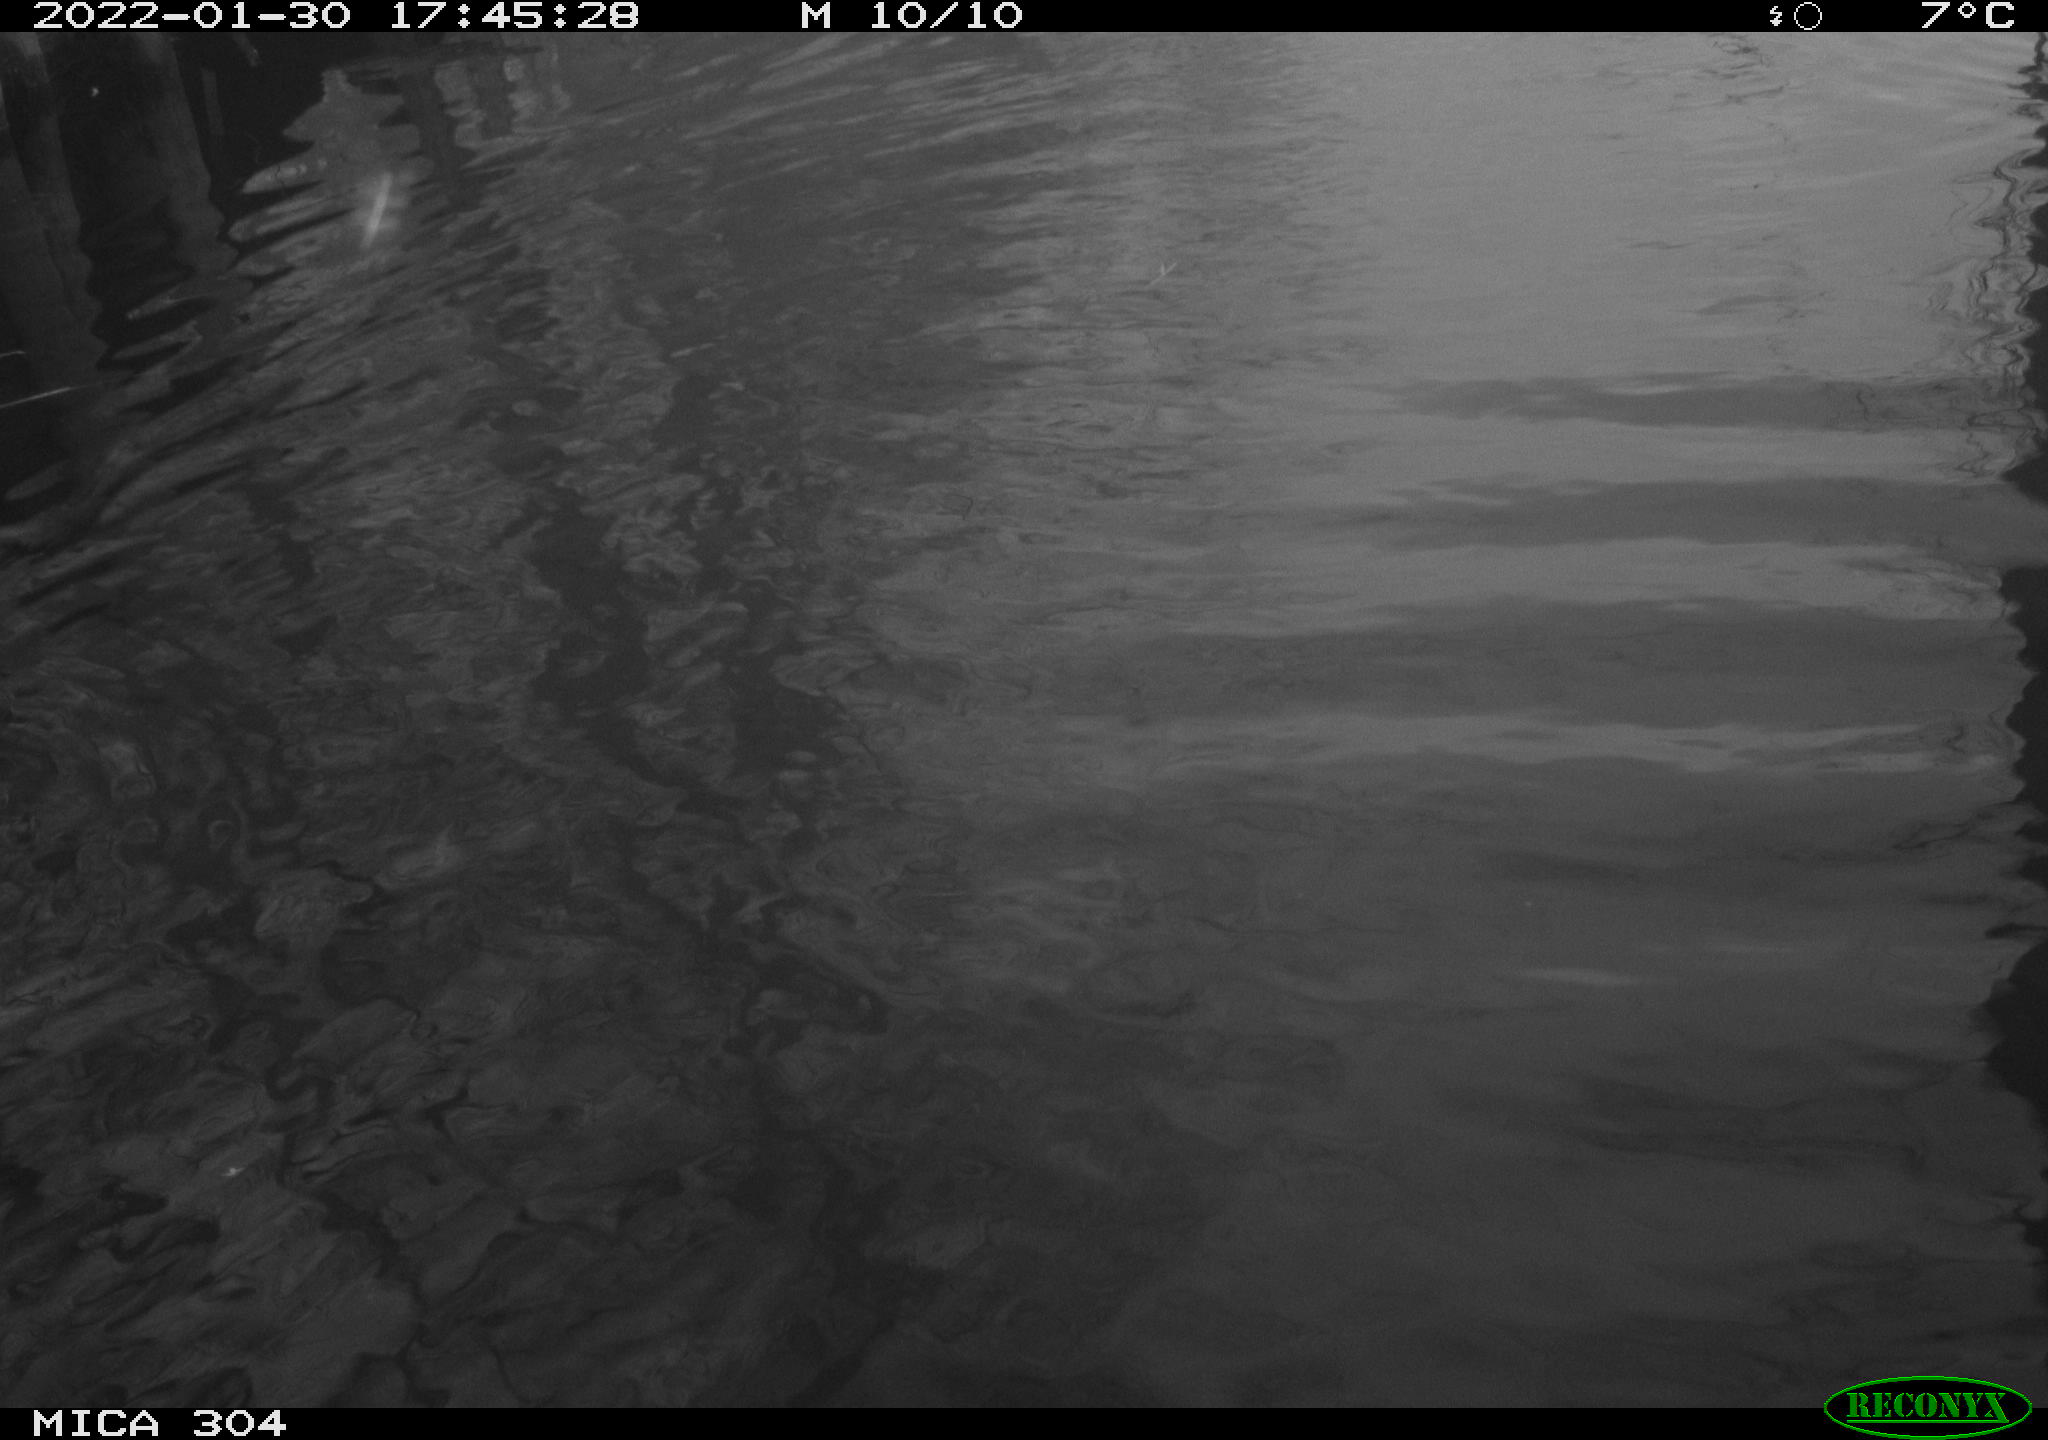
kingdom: Animalia
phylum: Chordata
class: Aves
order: Anseriformes
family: Anatidae
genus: Anas
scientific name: Anas
